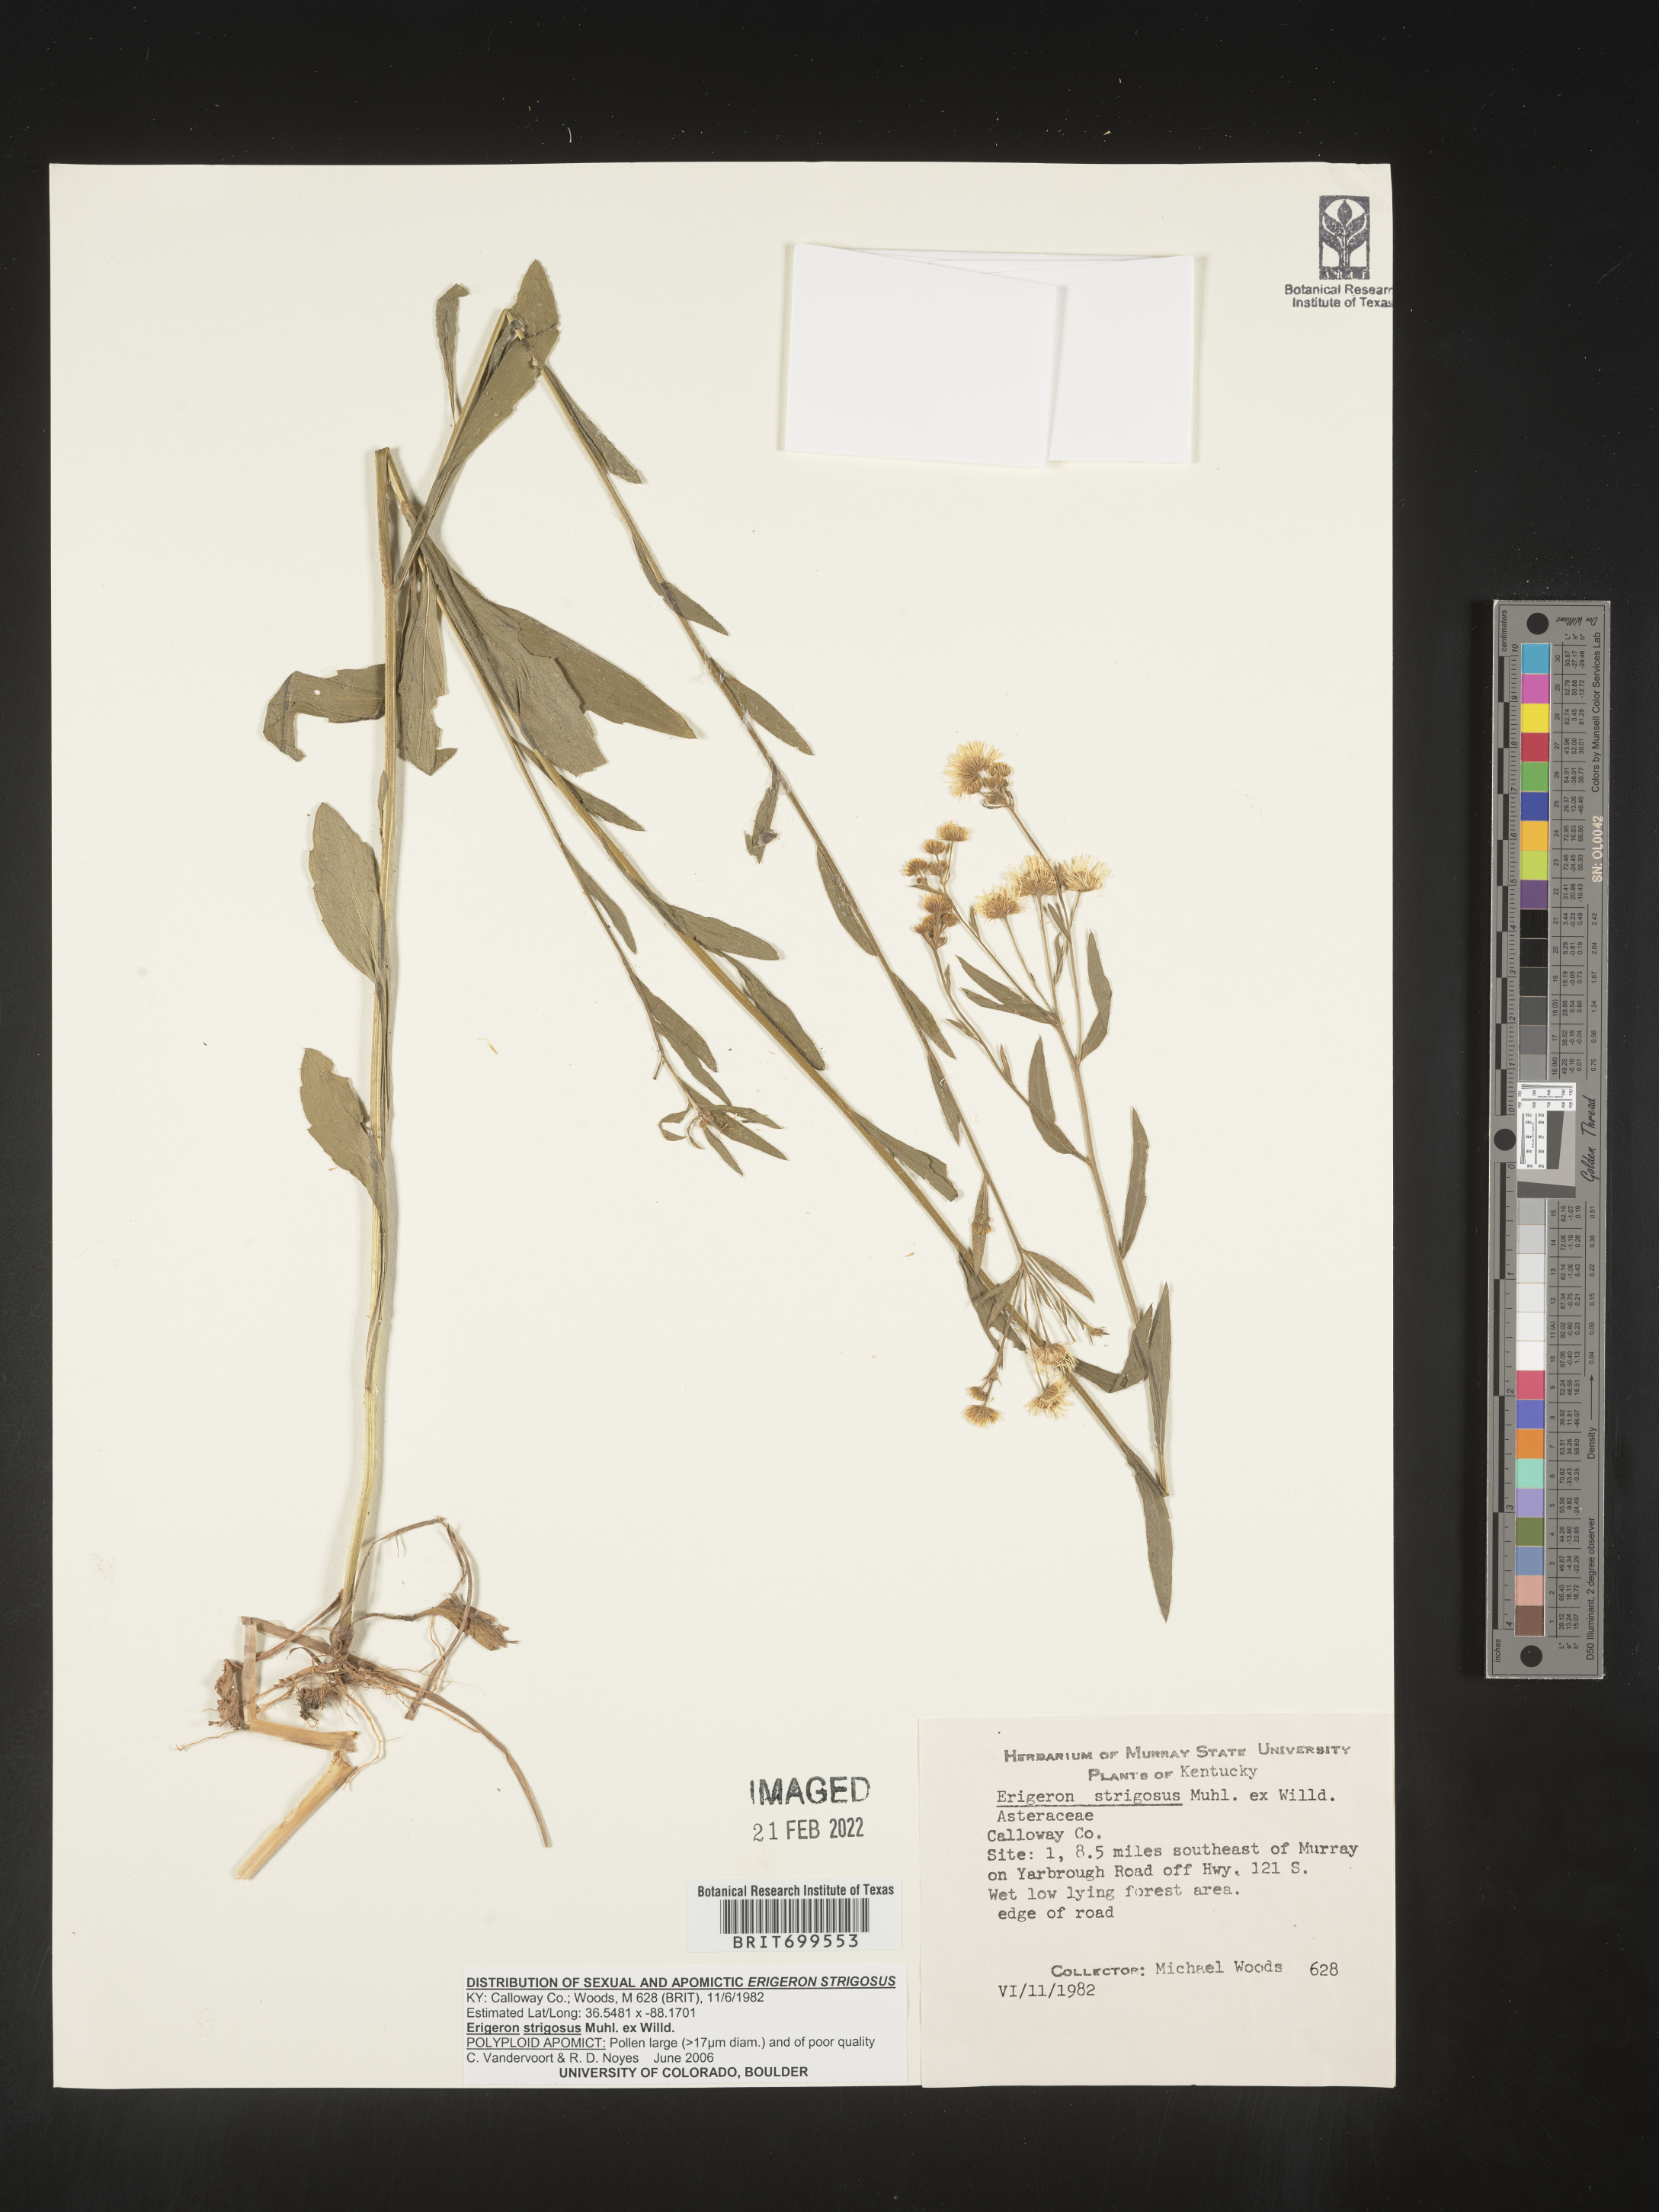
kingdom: Plantae
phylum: Tracheophyta
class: Magnoliopsida
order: Asterales
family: Asteraceae
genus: Erigeron
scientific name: Erigeron strigosus
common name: Common eastern fleabane
